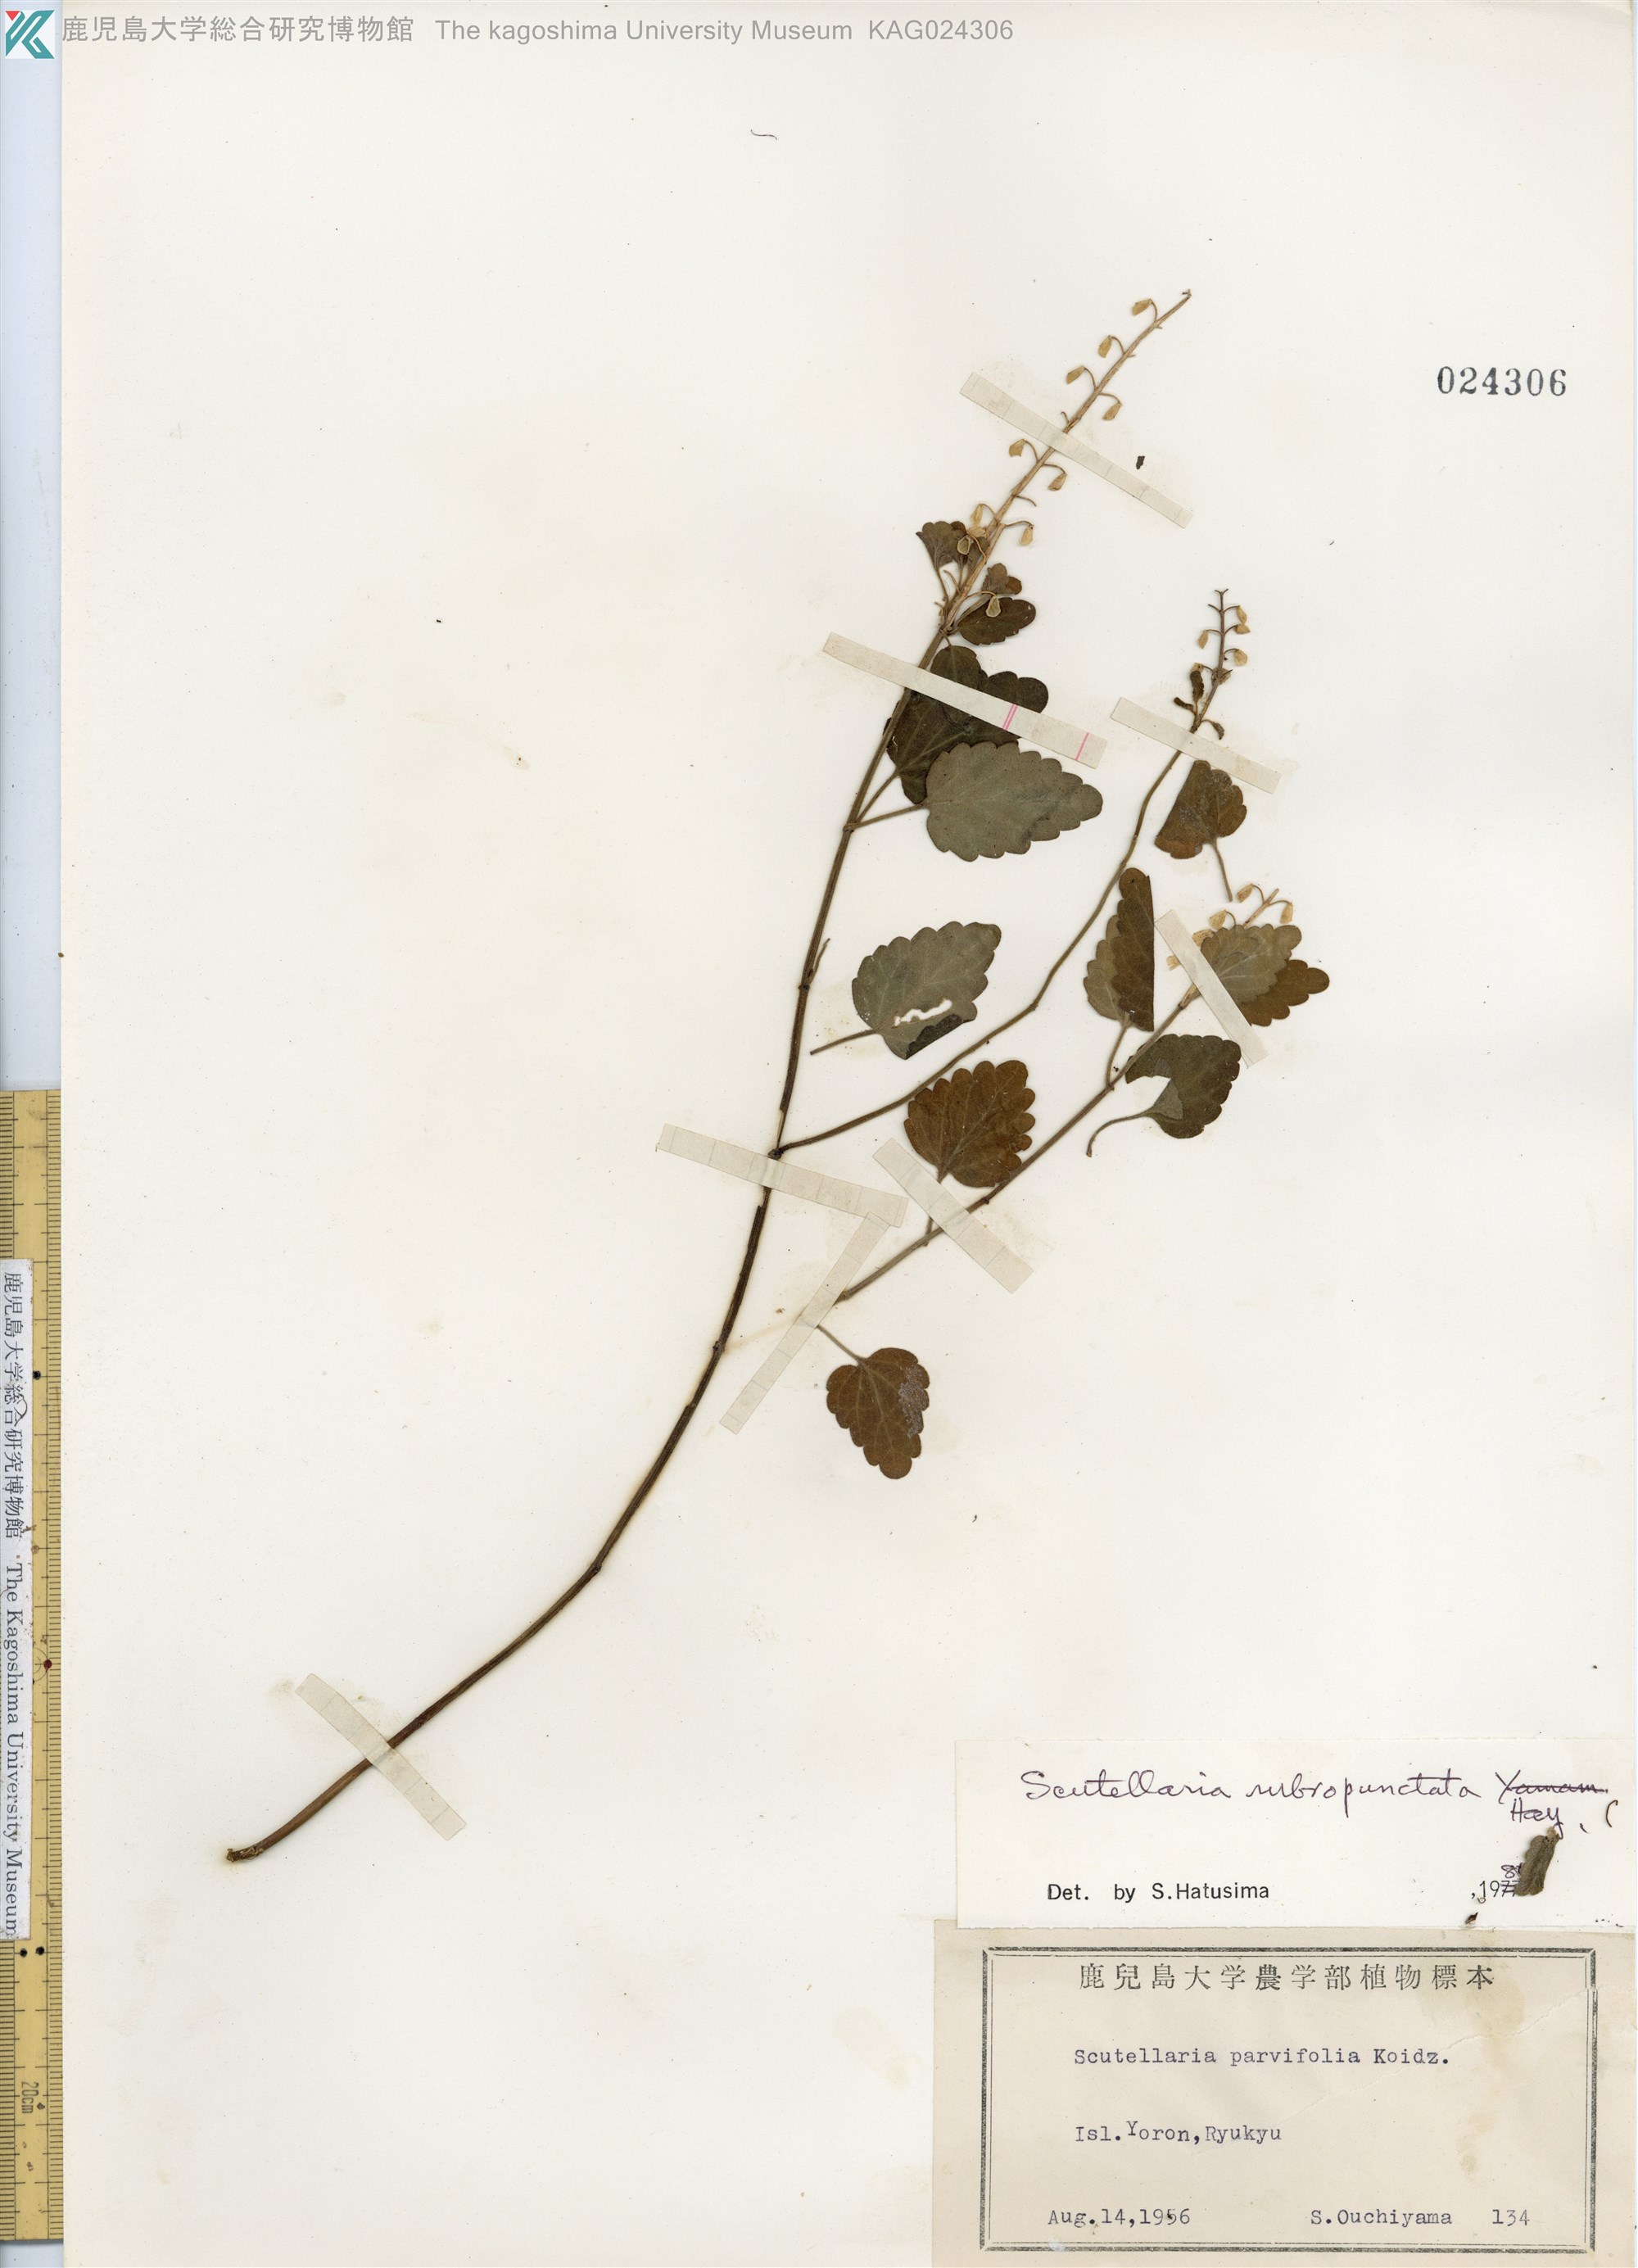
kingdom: Plantae
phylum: Tracheophyta
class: Magnoliopsida
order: Lamiales
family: Lamiaceae
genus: Scutellaria
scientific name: Scutellaria rubropunctata
